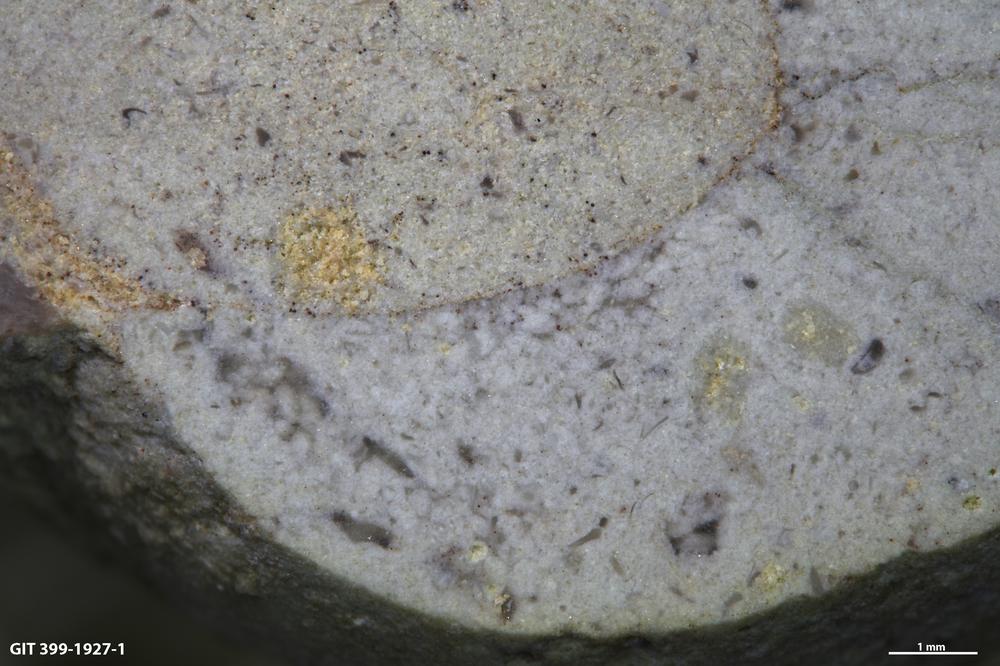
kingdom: Animalia
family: Coprulidae
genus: Coprulus
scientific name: Coprulus
